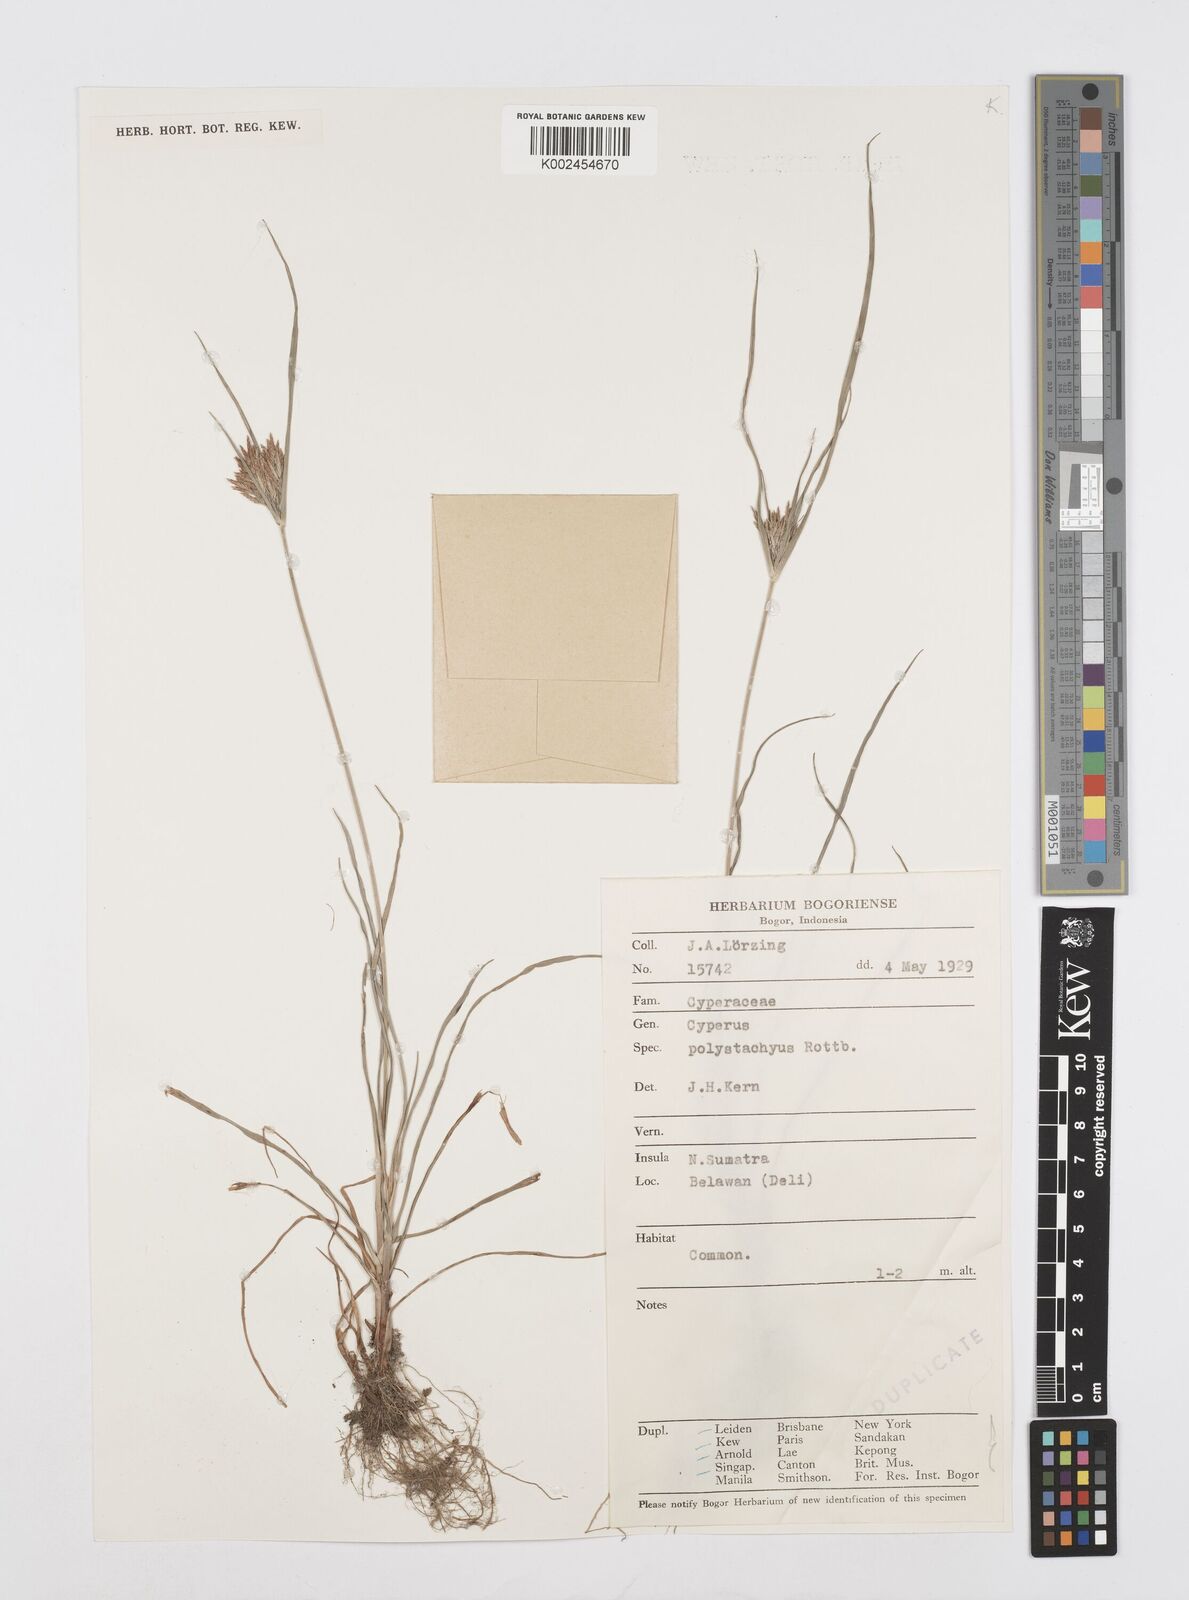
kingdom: Plantae
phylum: Tracheophyta
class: Liliopsida
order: Poales
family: Cyperaceae
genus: Cyperus
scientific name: Cyperus polystachyos
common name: Bunchy flat sedge
